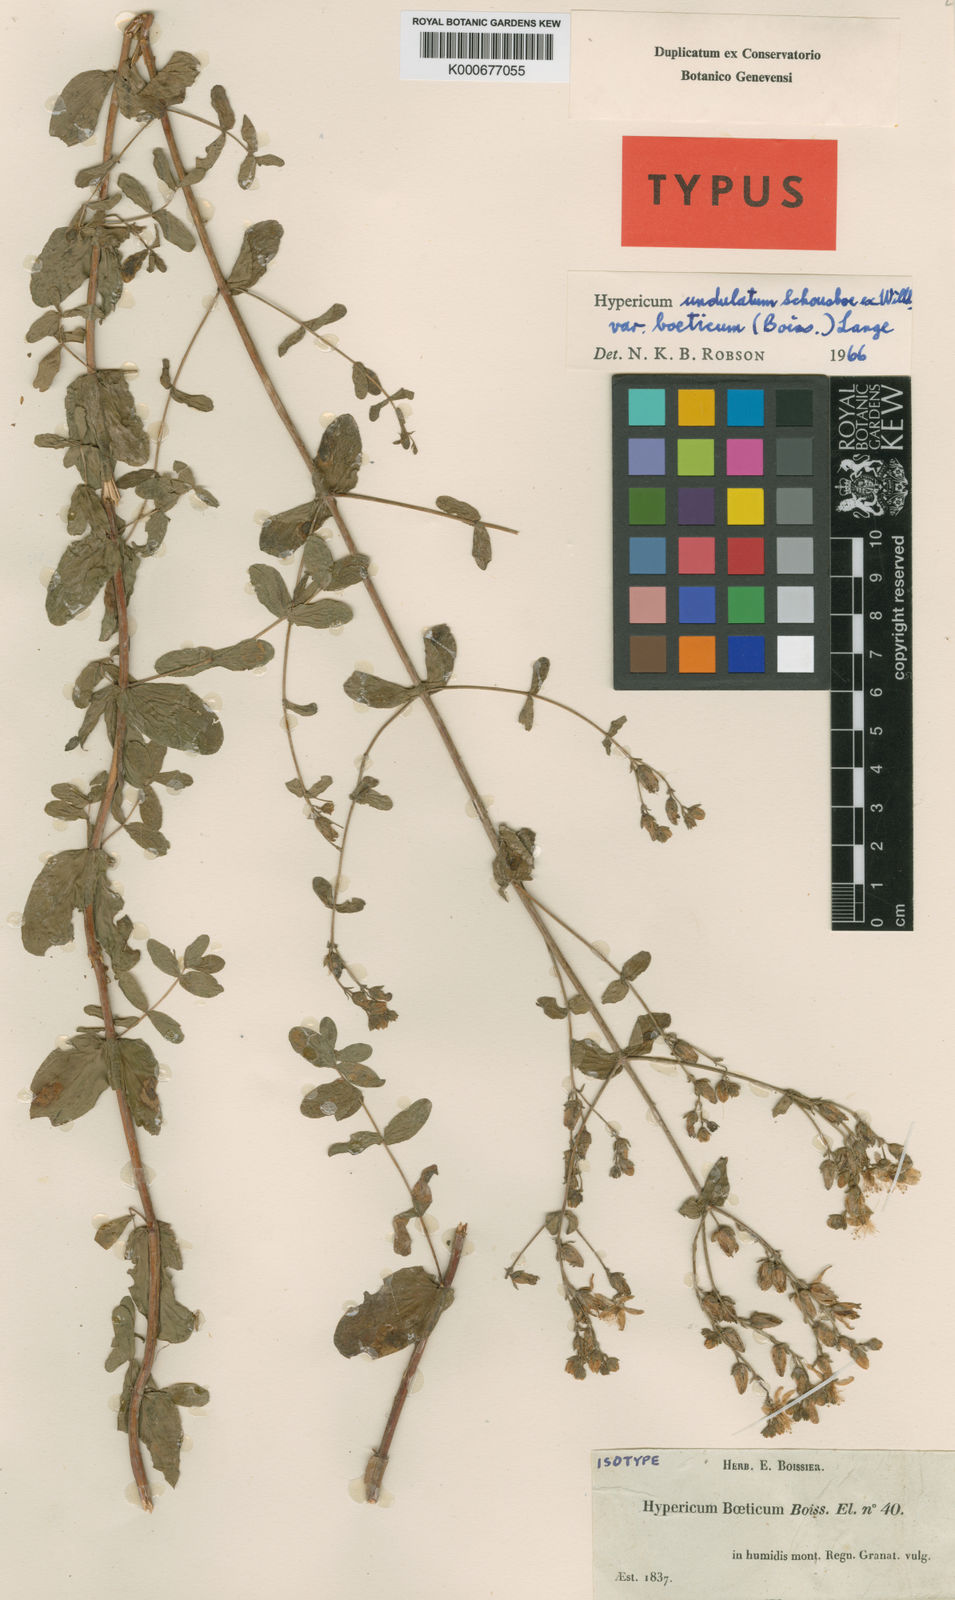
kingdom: Plantae
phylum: Tracheophyta
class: Magnoliopsida
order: Malpighiales
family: Hypericaceae
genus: Hypericum
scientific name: Hypericum undulatum
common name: Wavy st. john's-wort
